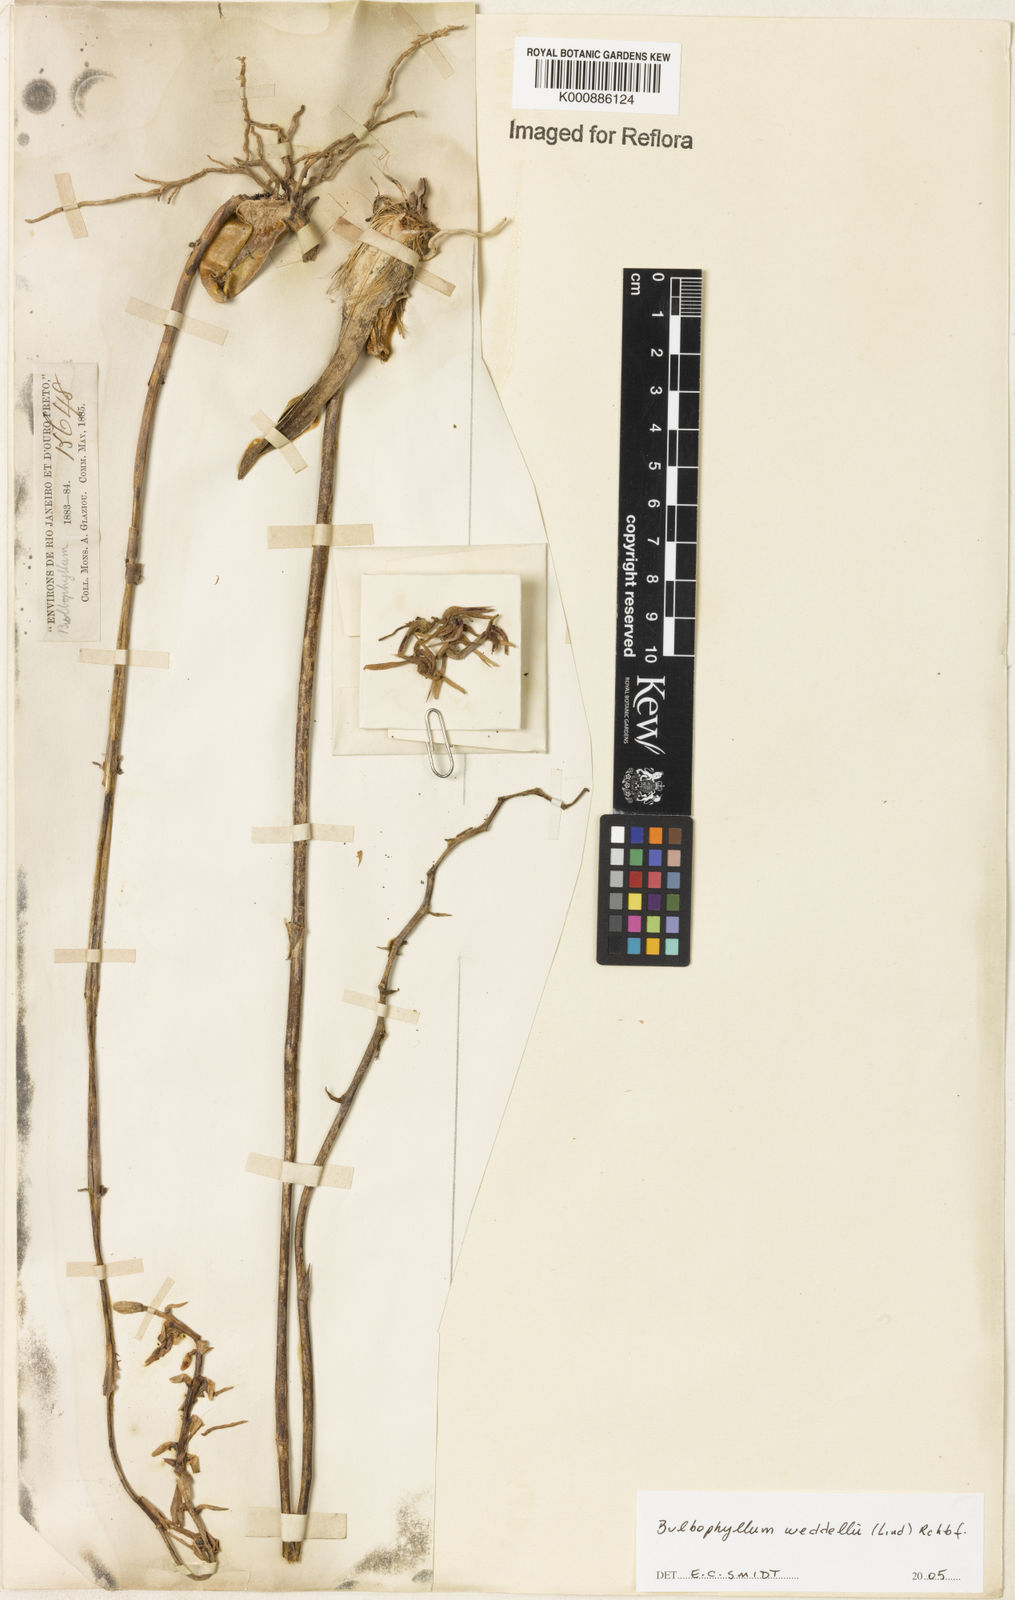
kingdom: Plantae
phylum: Tracheophyta
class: Liliopsida
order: Asparagales
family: Orchidaceae
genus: Bulbophyllum
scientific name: Bulbophyllum weddellii
